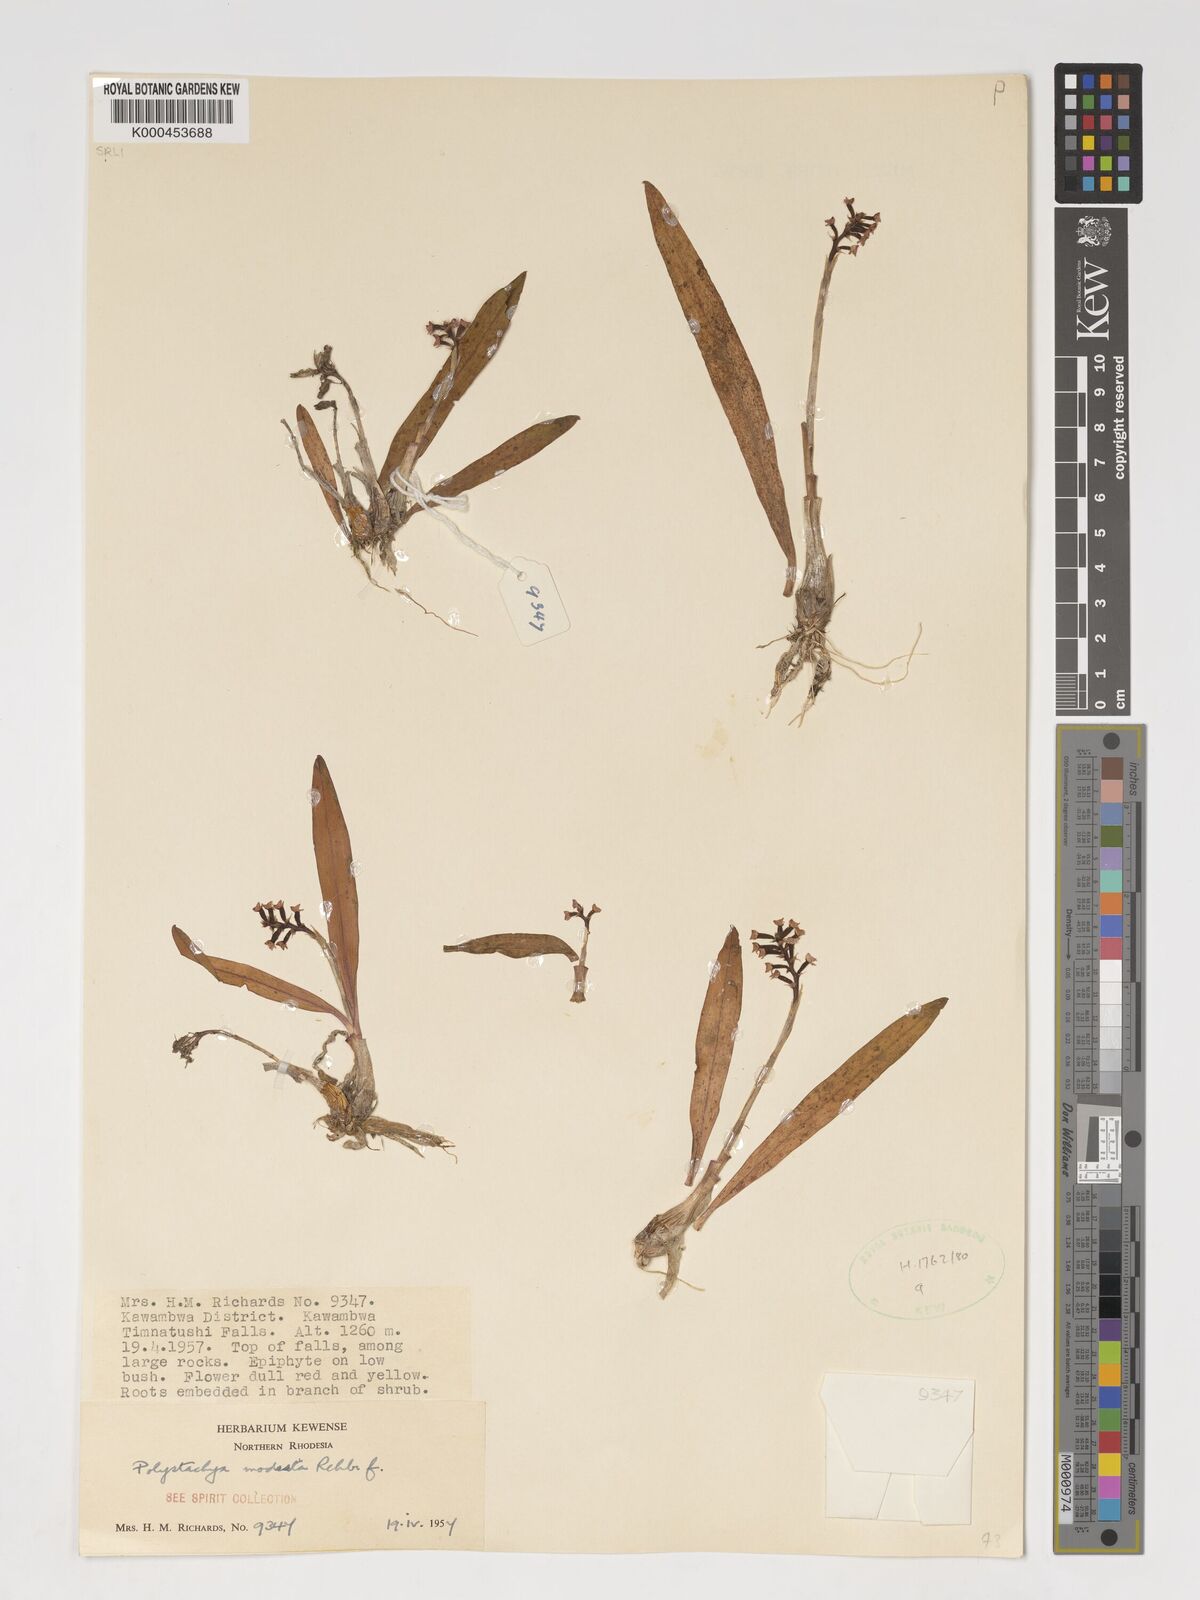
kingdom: Plantae
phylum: Tracheophyta
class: Liliopsida
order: Asparagales
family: Orchidaceae
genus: Polystachya
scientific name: Polystachya modesta
